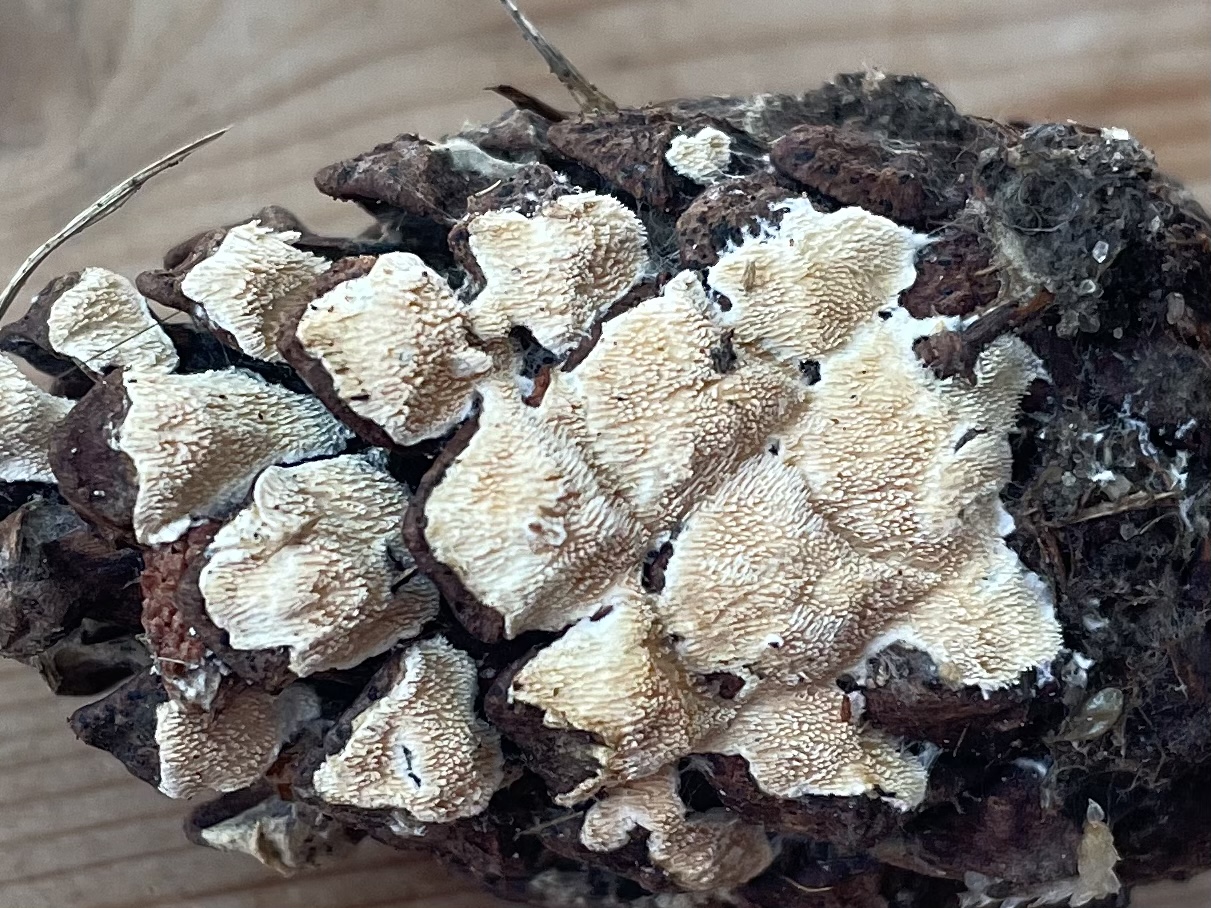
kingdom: Fungi
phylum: Basidiomycota
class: Agaricomycetes
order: Polyporales
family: Steccherinaceae
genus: Steccherinum
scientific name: Steccherinum
